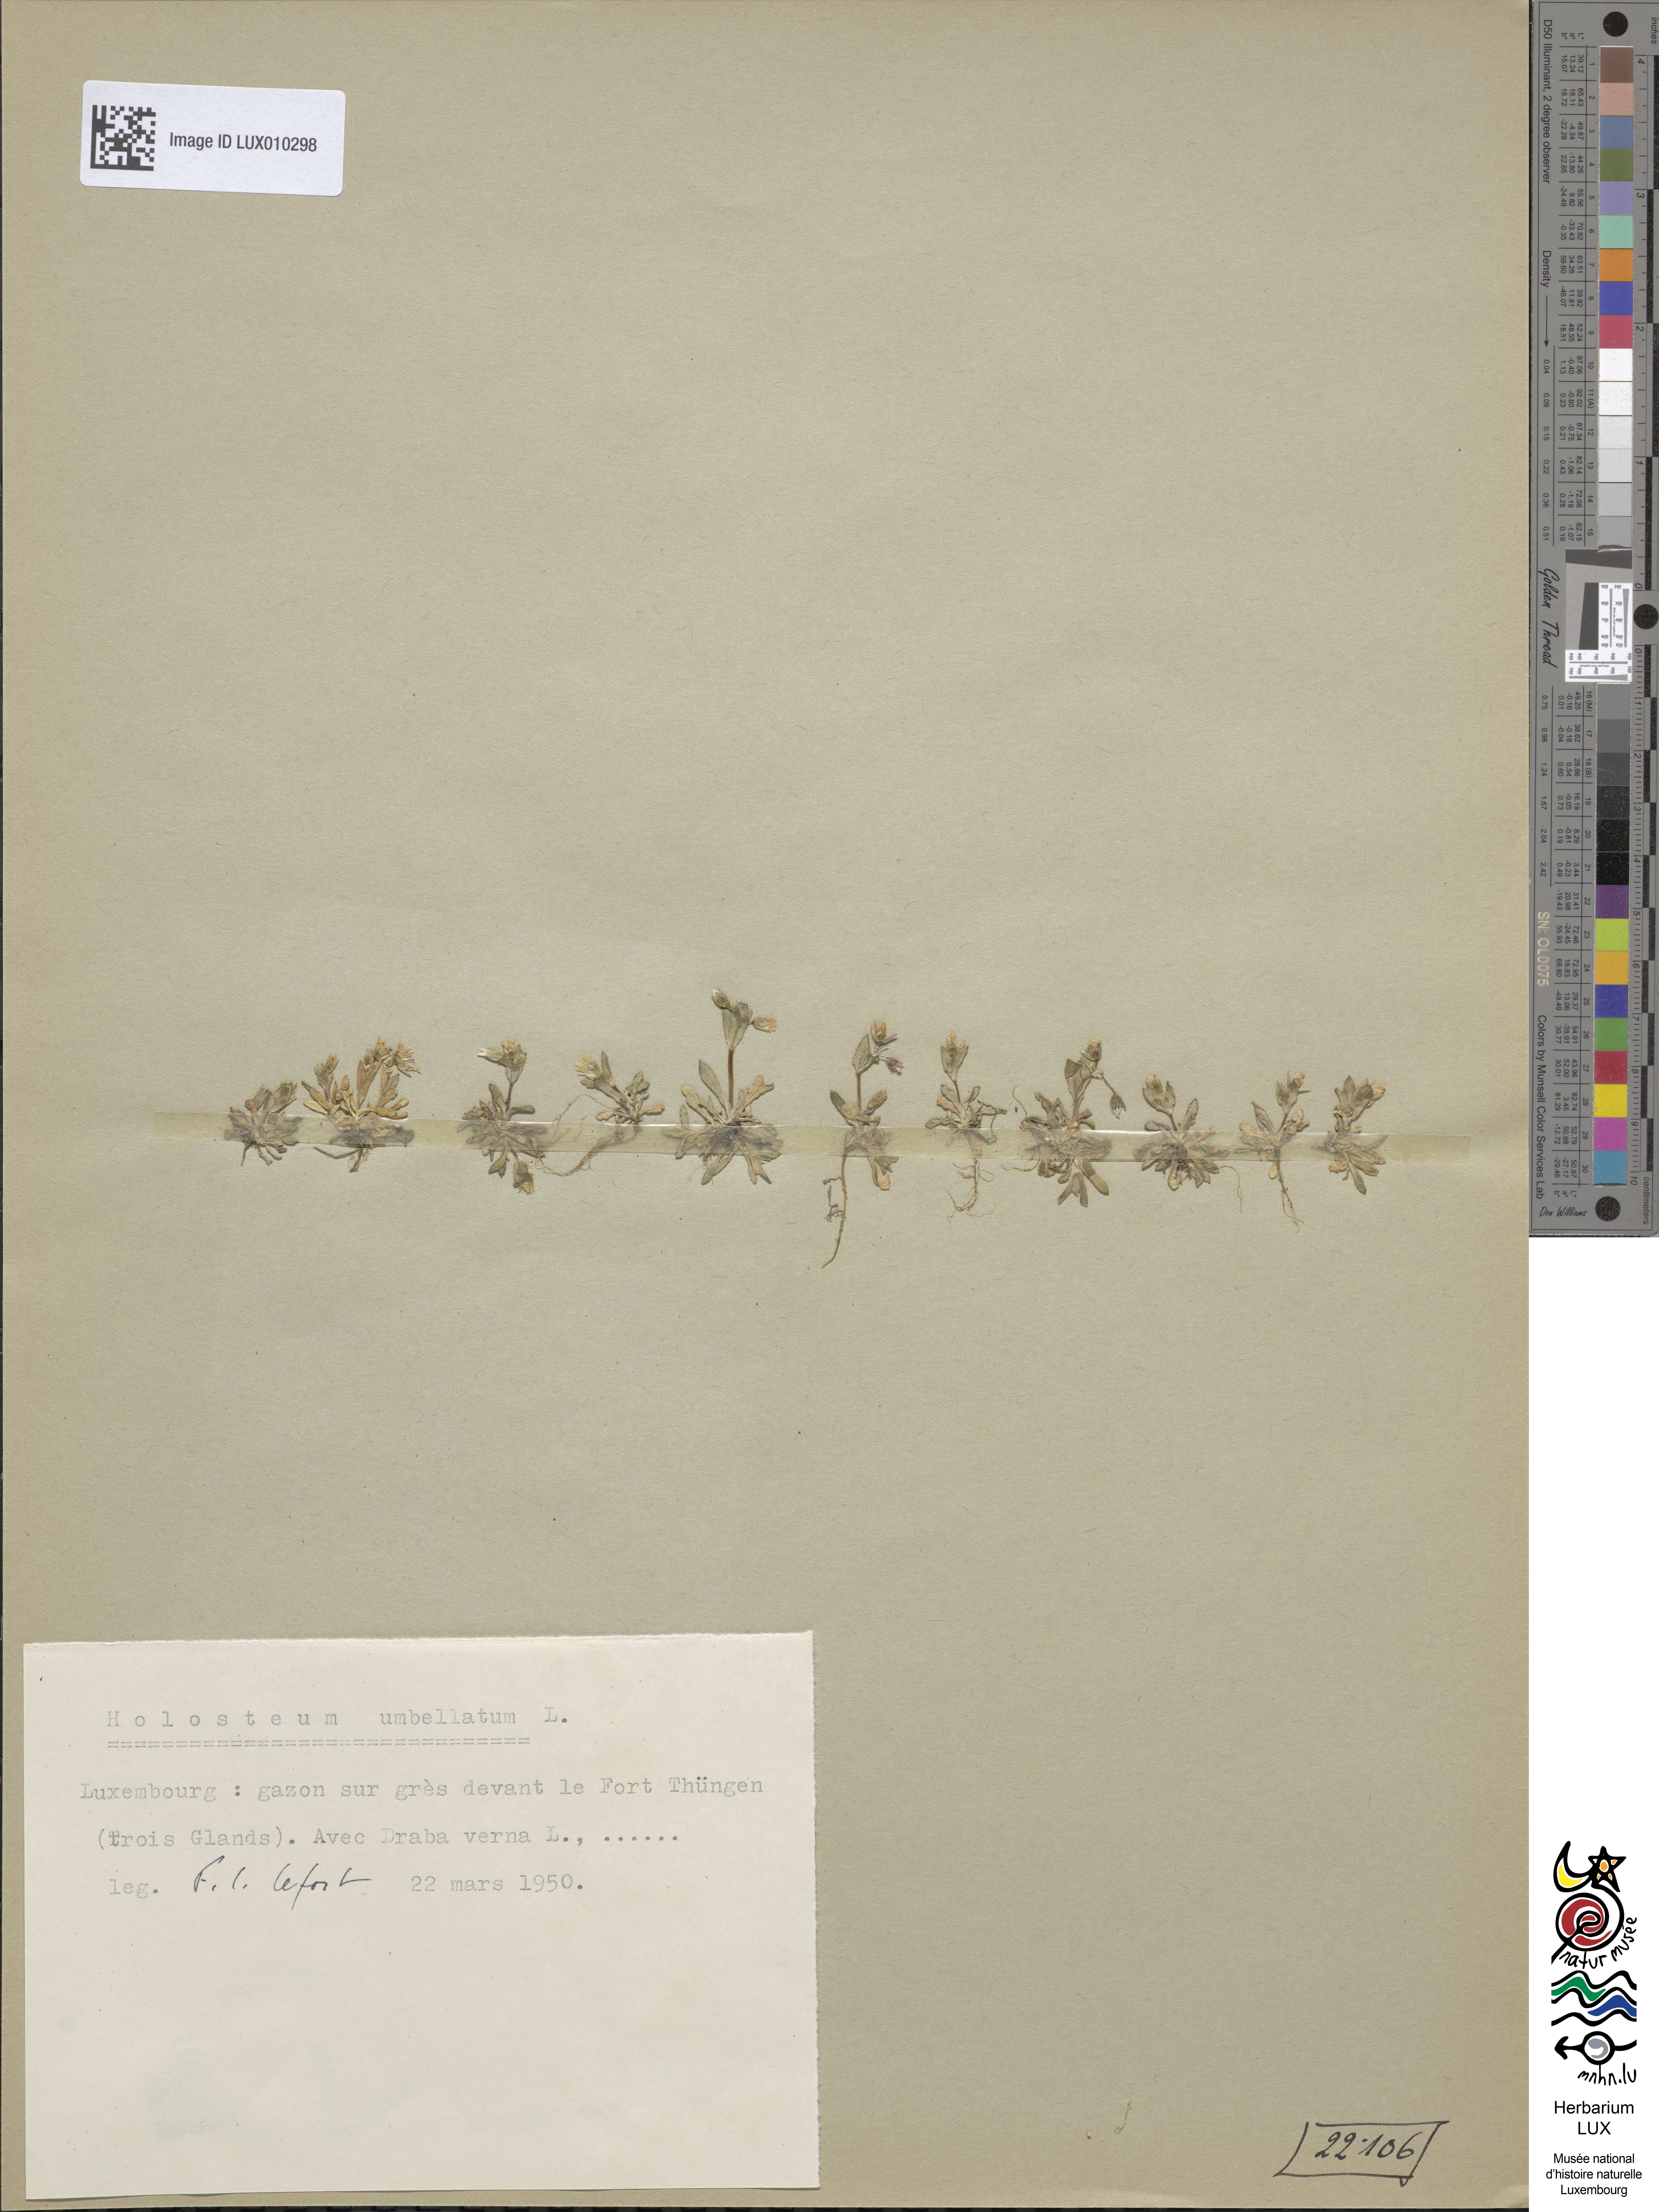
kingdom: Plantae
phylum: Tracheophyta
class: Magnoliopsida
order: Caryophyllales
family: Caryophyllaceae
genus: Holosteum
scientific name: Holosteum umbellatum
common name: Jagged chickweed
